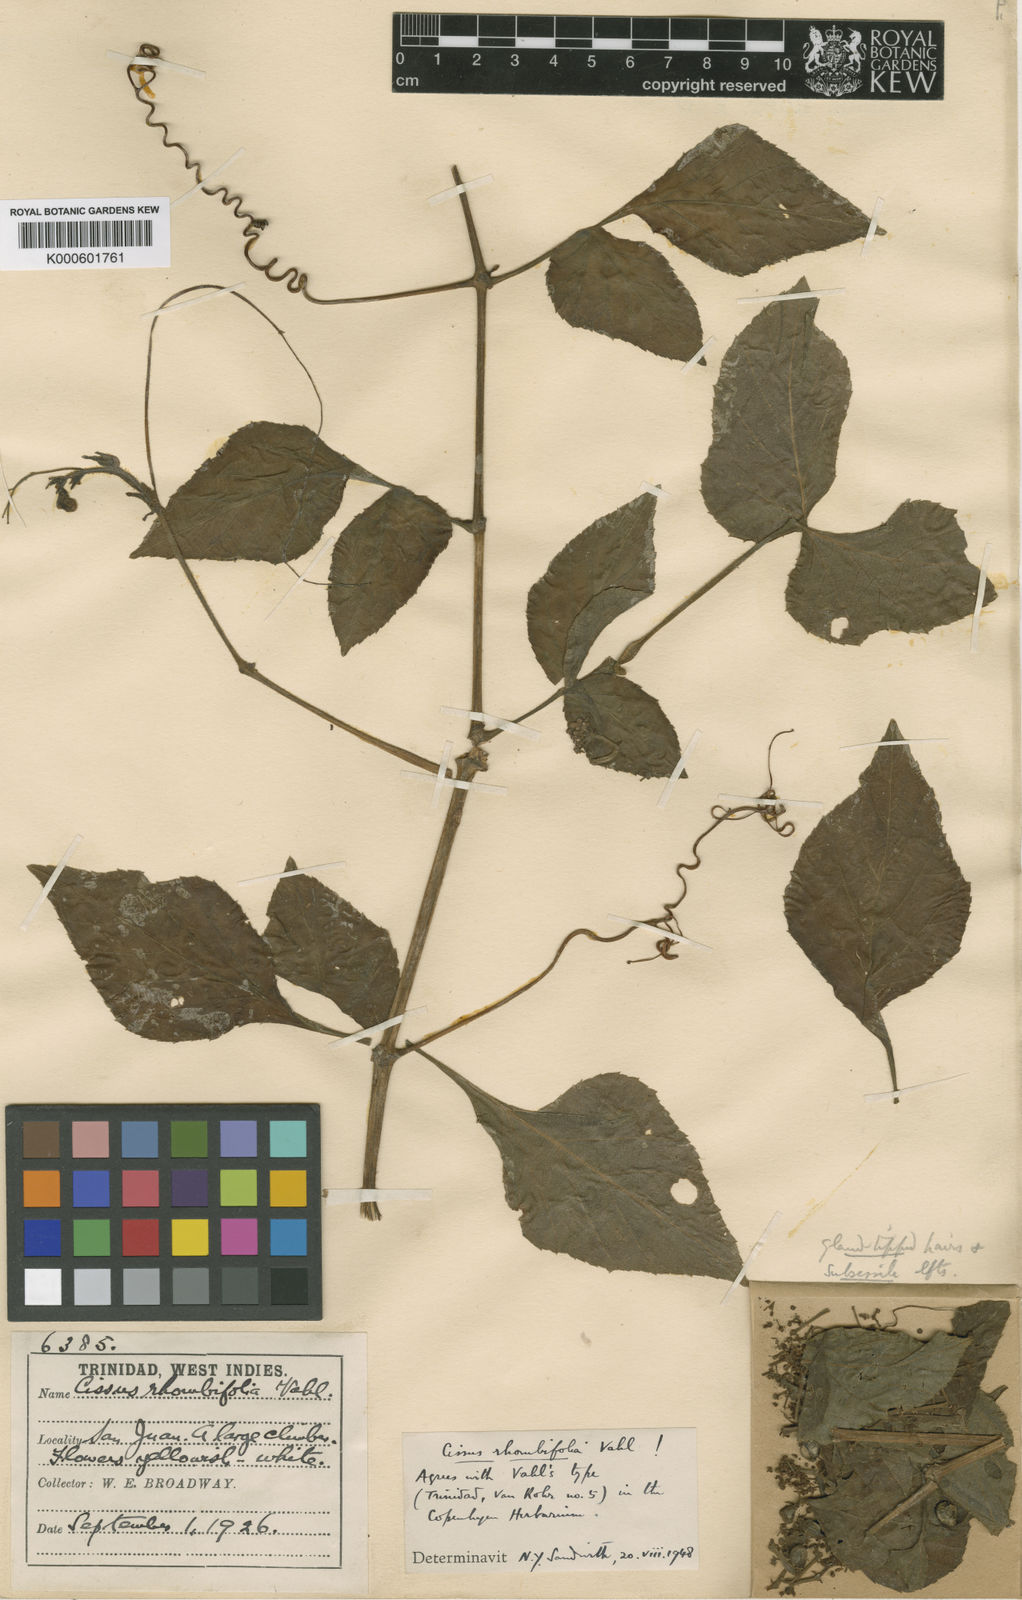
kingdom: Plantae
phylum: Tracheophyta
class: Magnoliopsida
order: Vitales
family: Vitaceae
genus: Cissus
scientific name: Cissus alata
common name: Venezuela treebind
